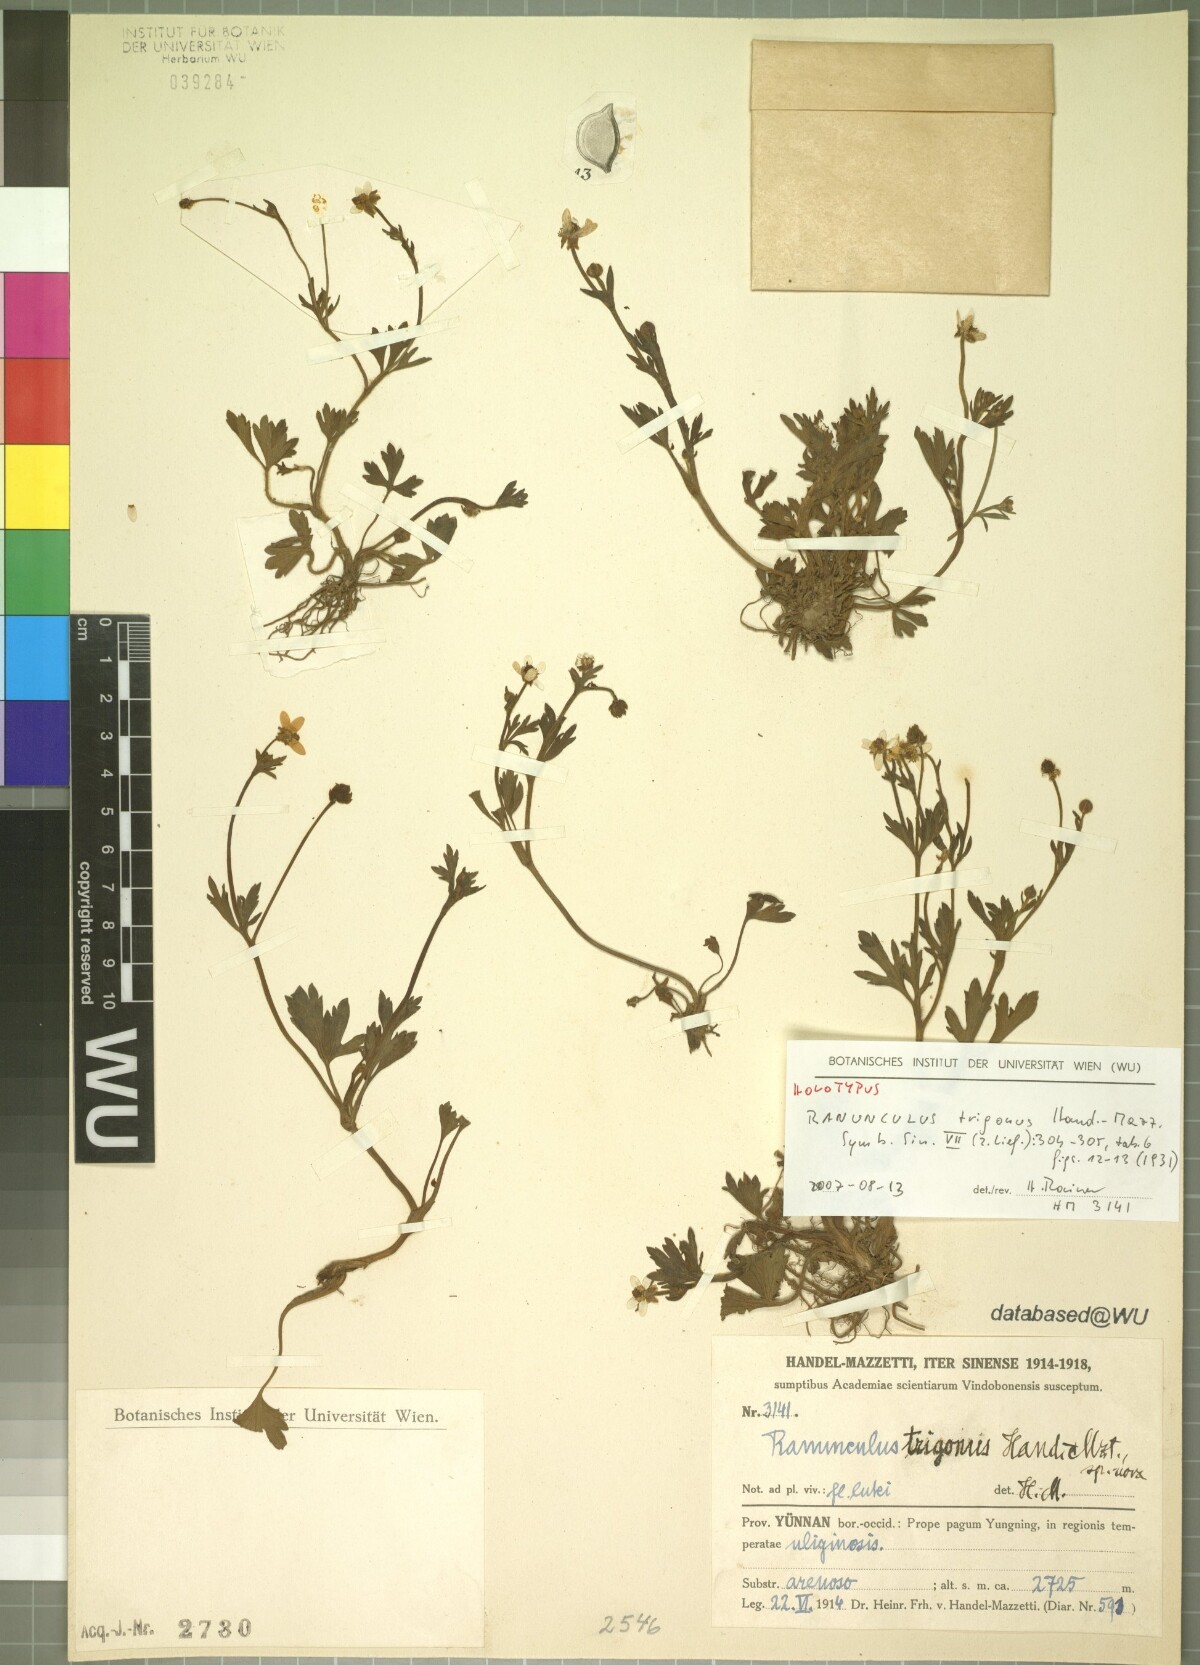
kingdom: Plantae
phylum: Tracheophyta
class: Magnoliopsida
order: Ranunculales
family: Ranunculaceae
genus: Ranunculus
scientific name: Ranunculus trigonus
